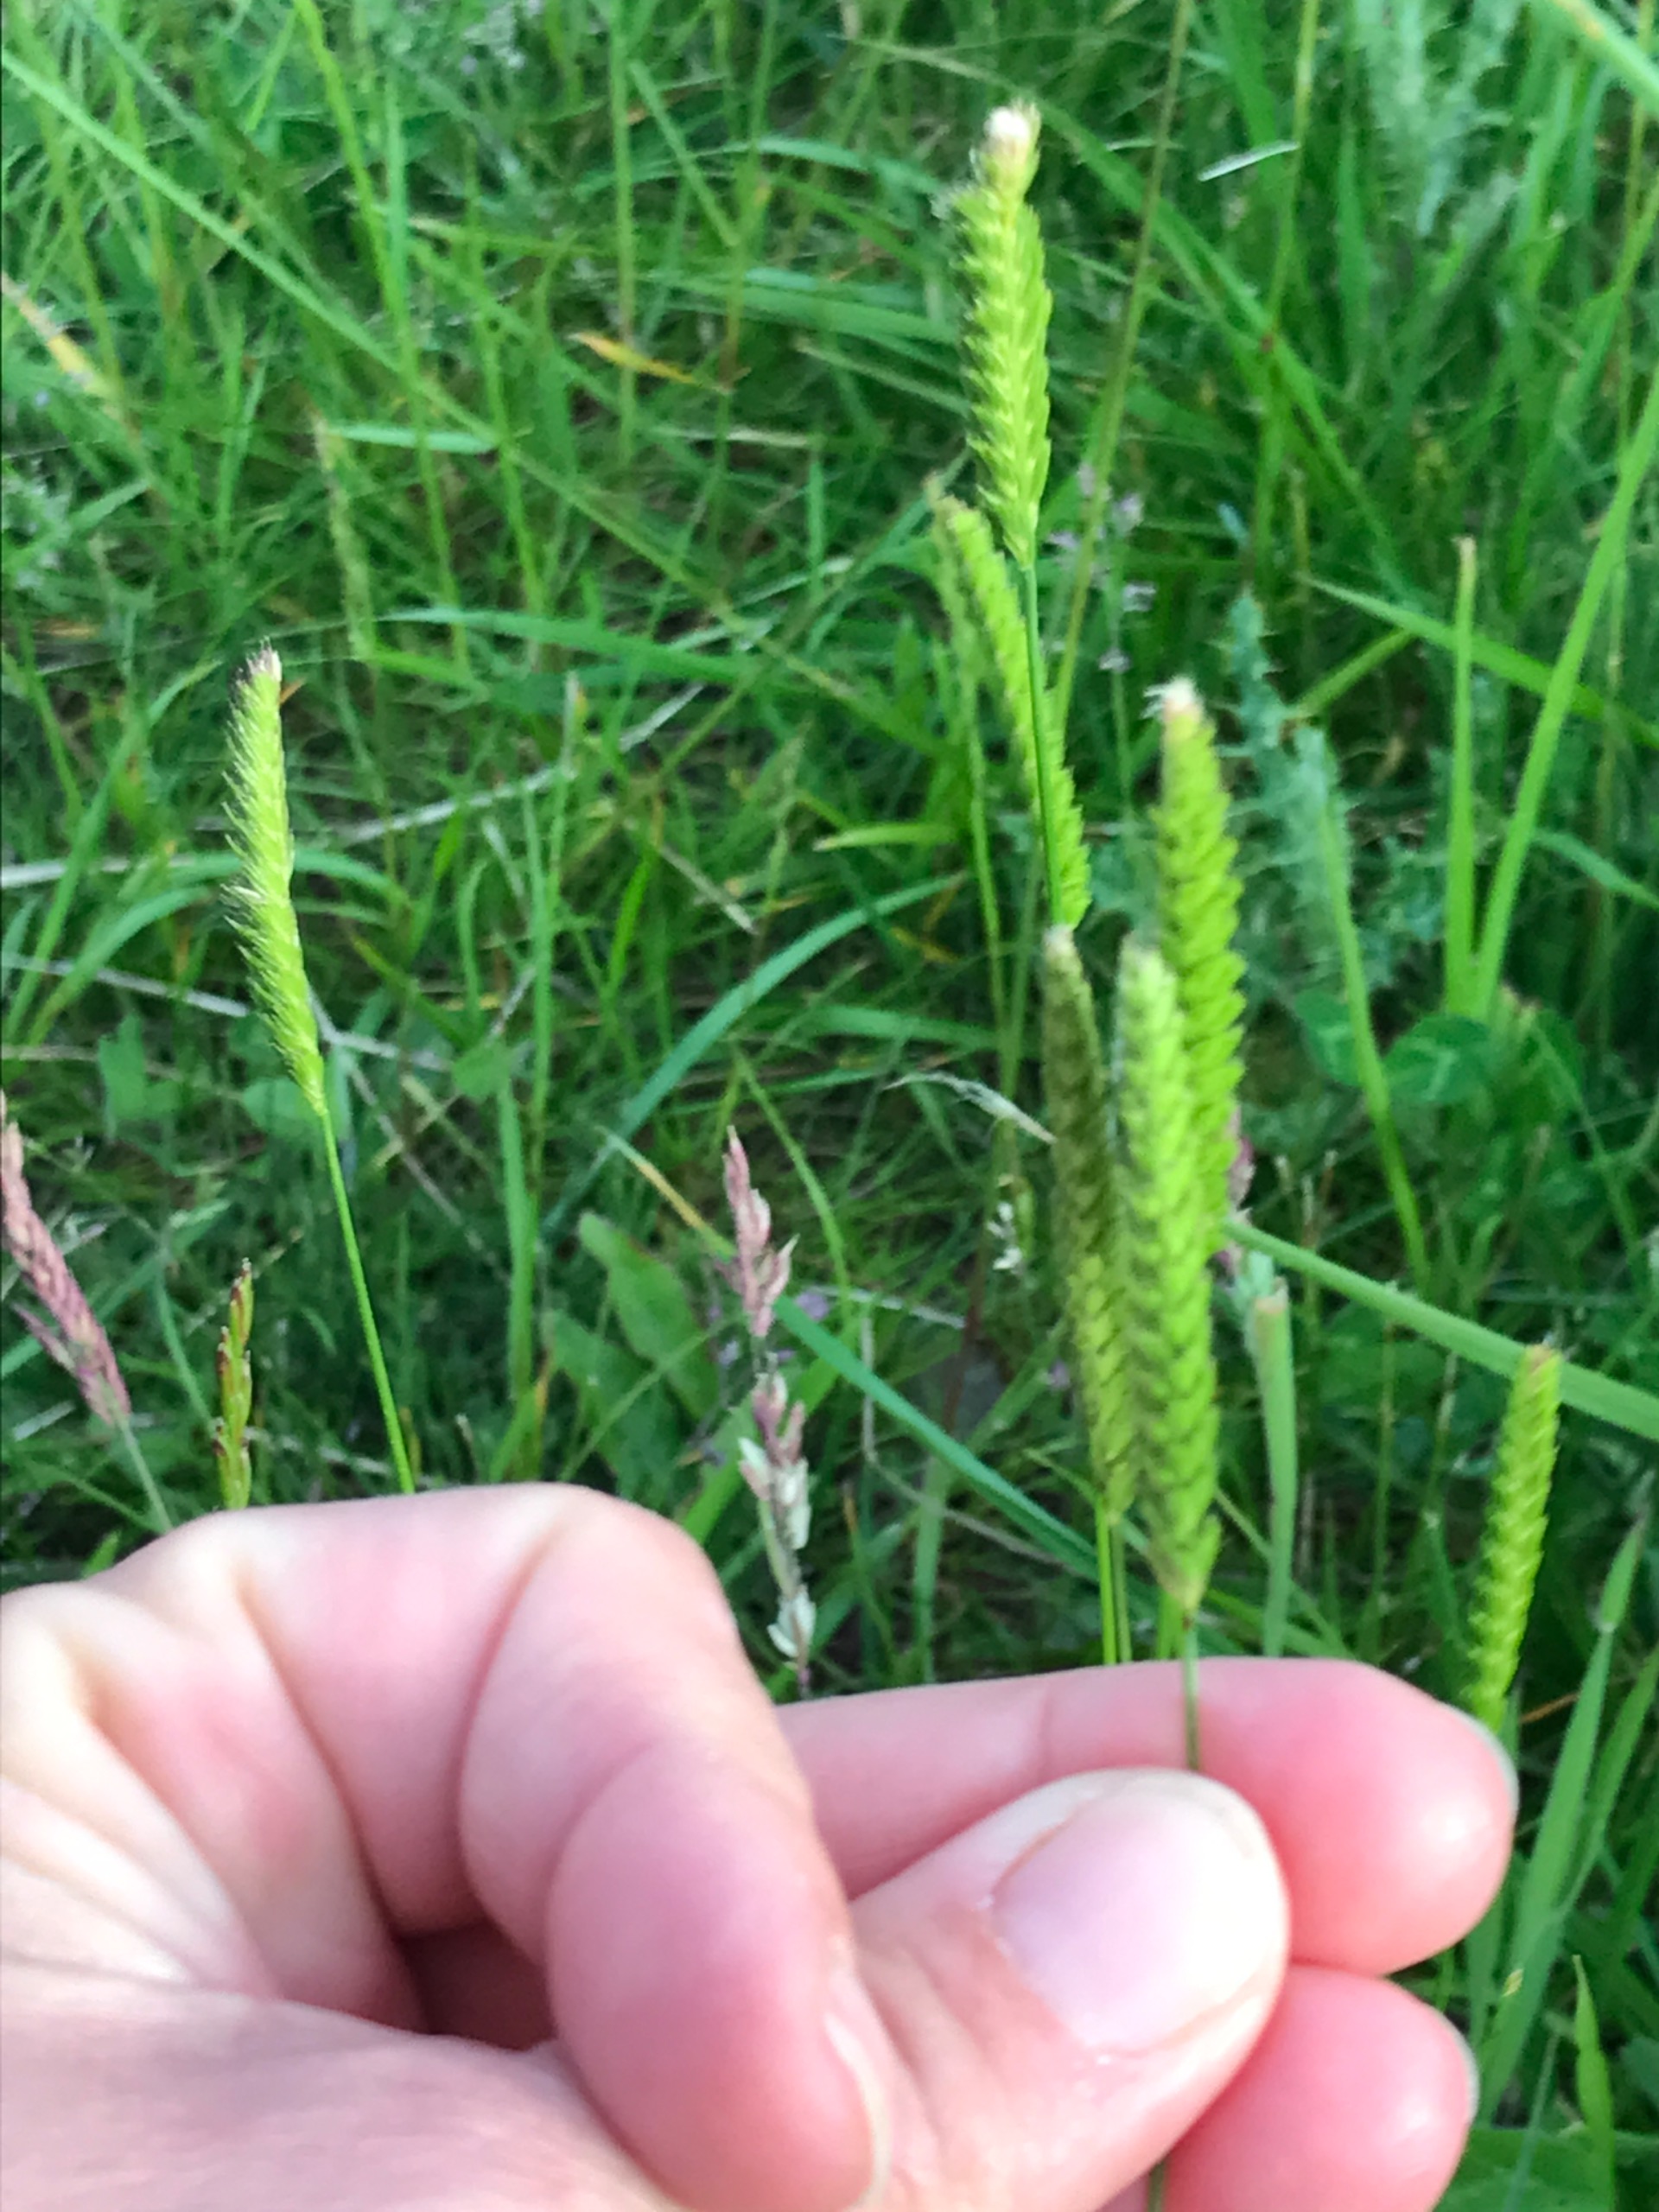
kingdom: Plantae
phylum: Tracheophyta
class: Liliopsida
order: Poales
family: Poaceae
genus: Cynosurus
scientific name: Cynosurus cristatus
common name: Kamgræs
